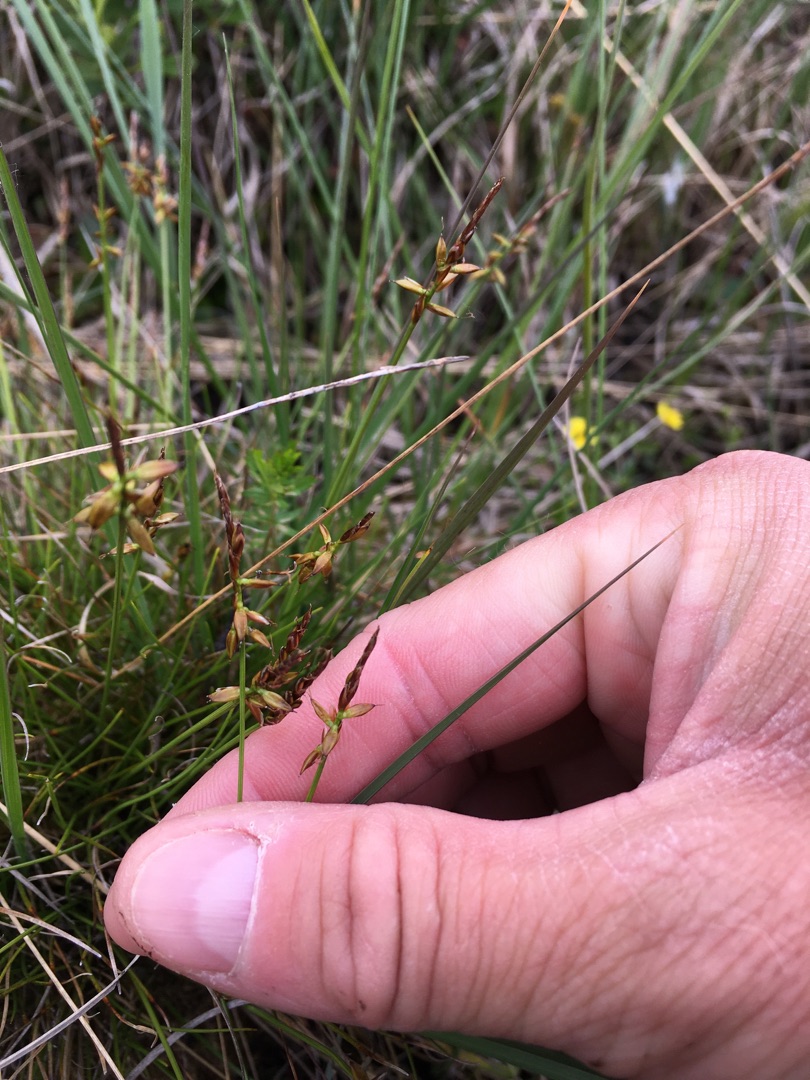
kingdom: Plantae
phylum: Tracheophyta
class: Liliopsida
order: Poales
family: Cyperaceae
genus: Carex
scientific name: Carex pulicaris
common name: Loppe-star
